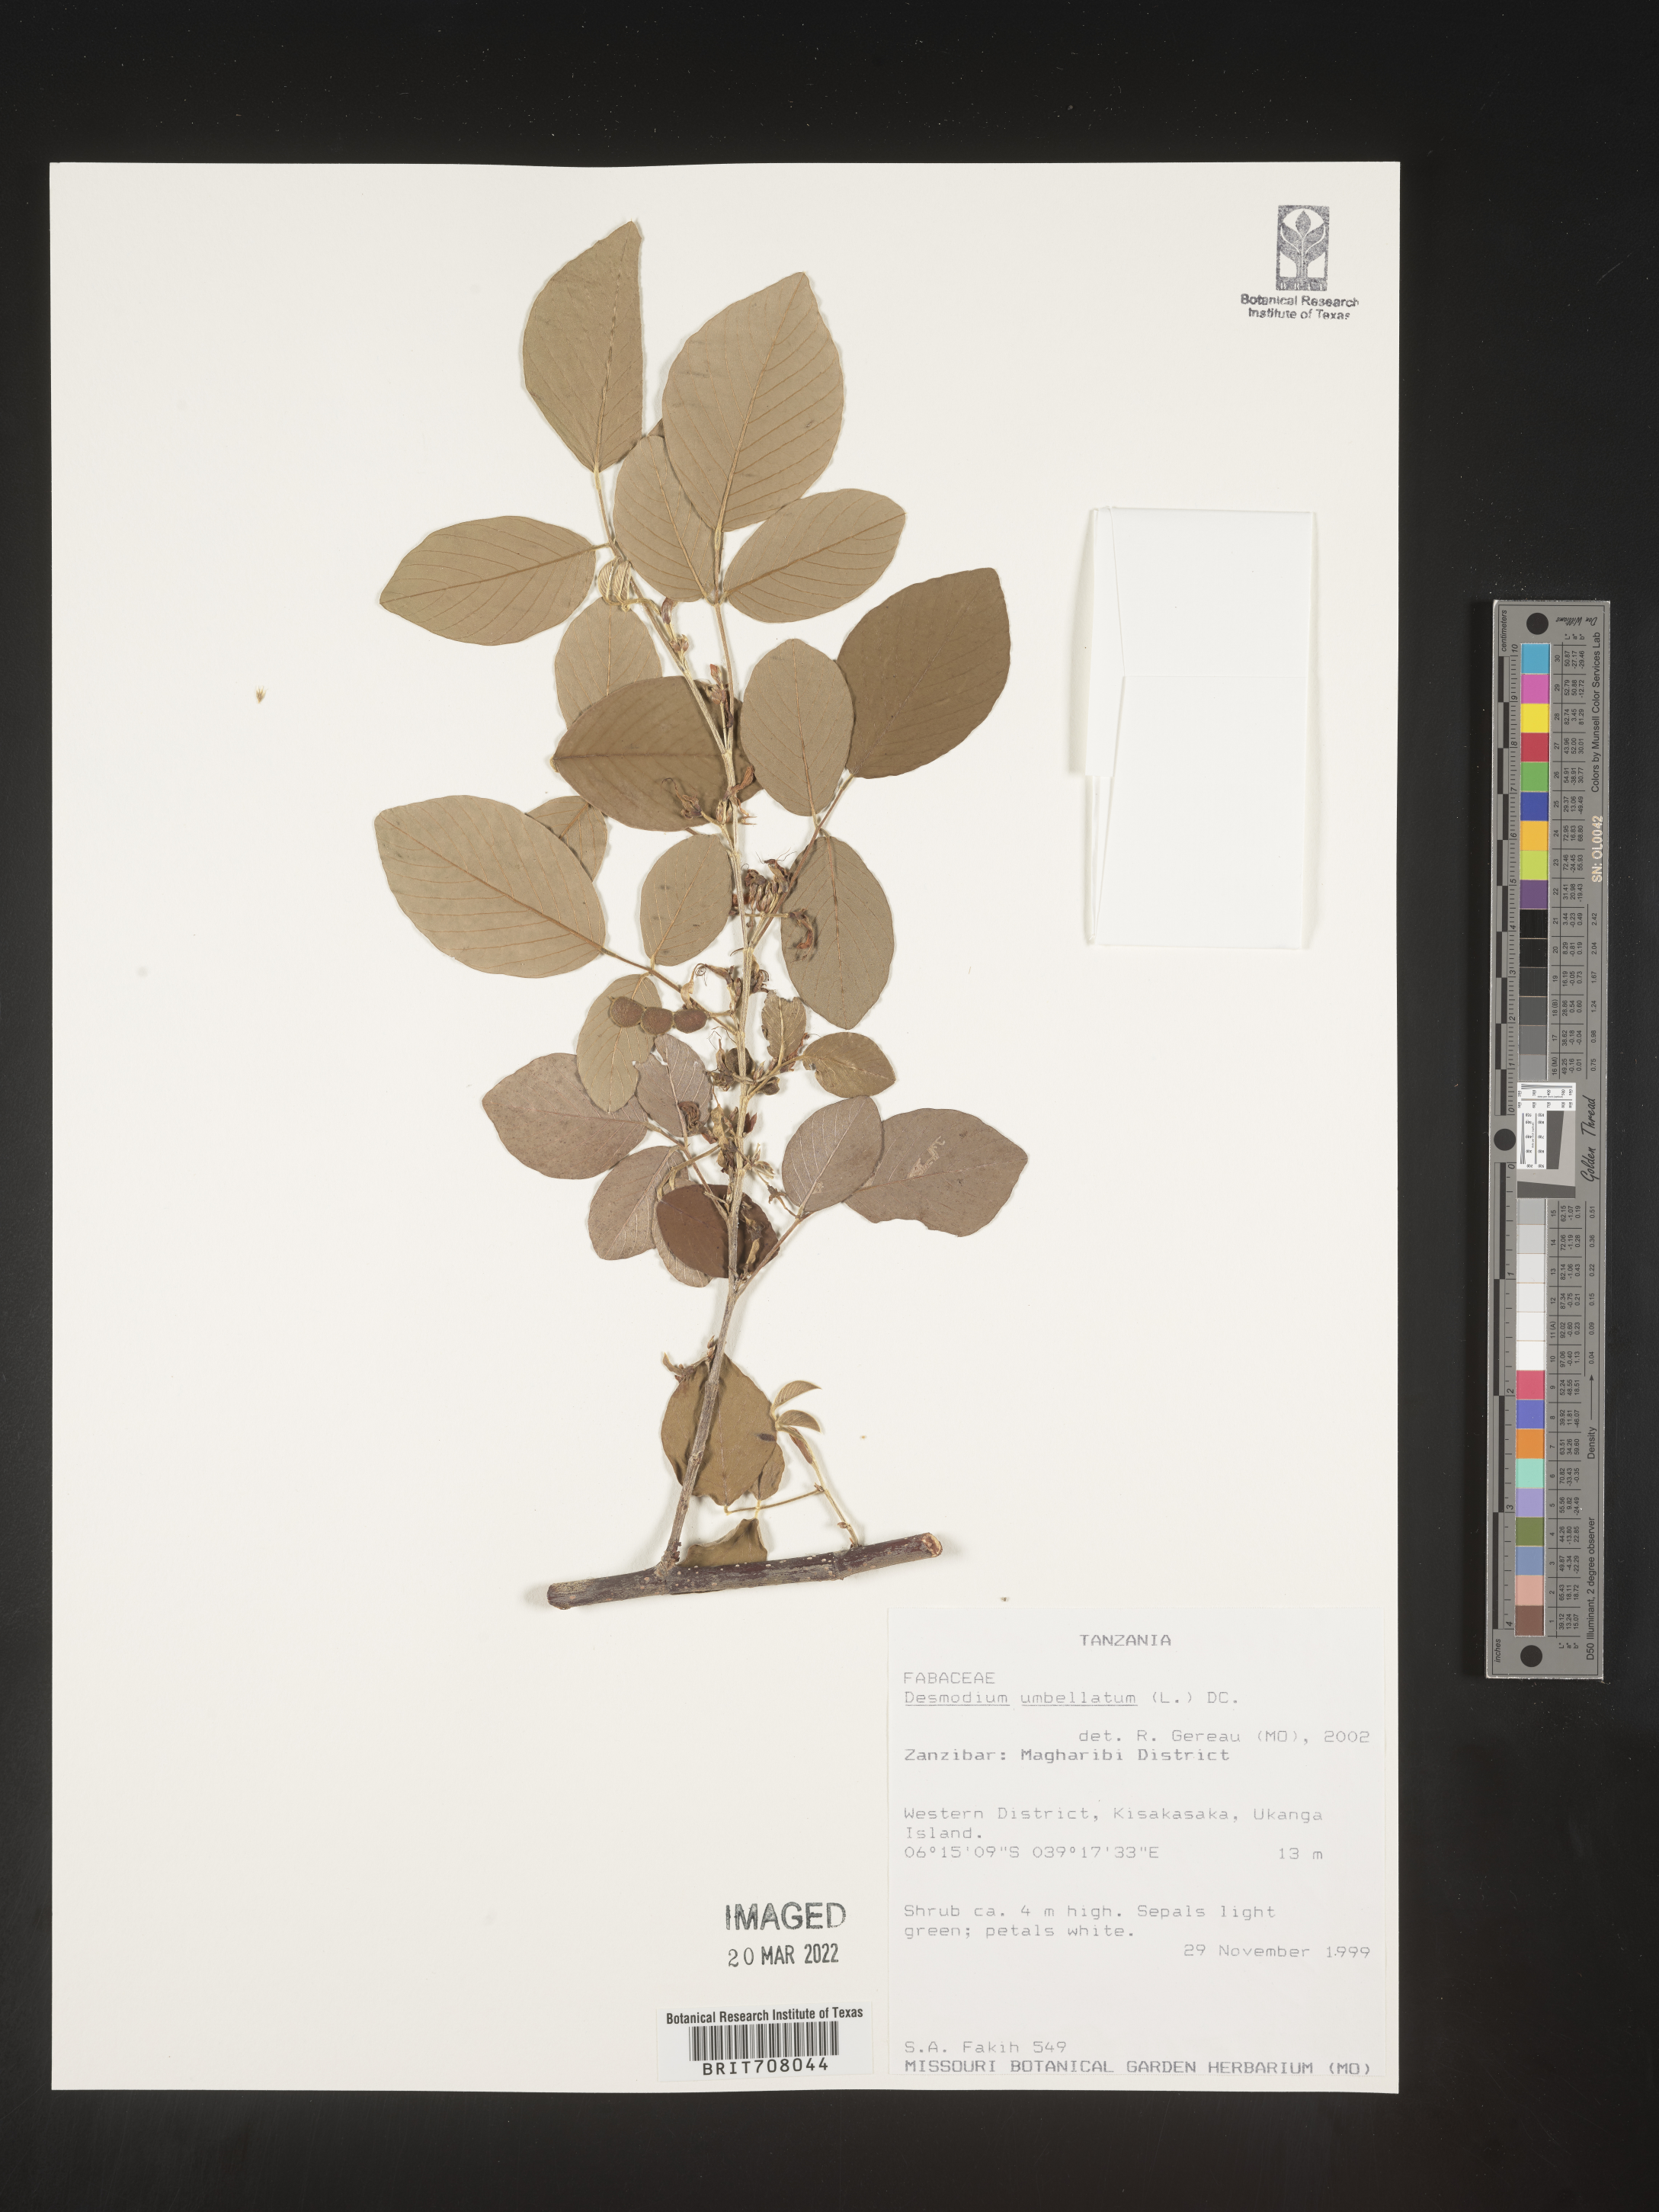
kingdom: Plantae
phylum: Tracheophyta
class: Magnoliopsida
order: Fabales
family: Fabaceae
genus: Desmodium
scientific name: Desmodium
